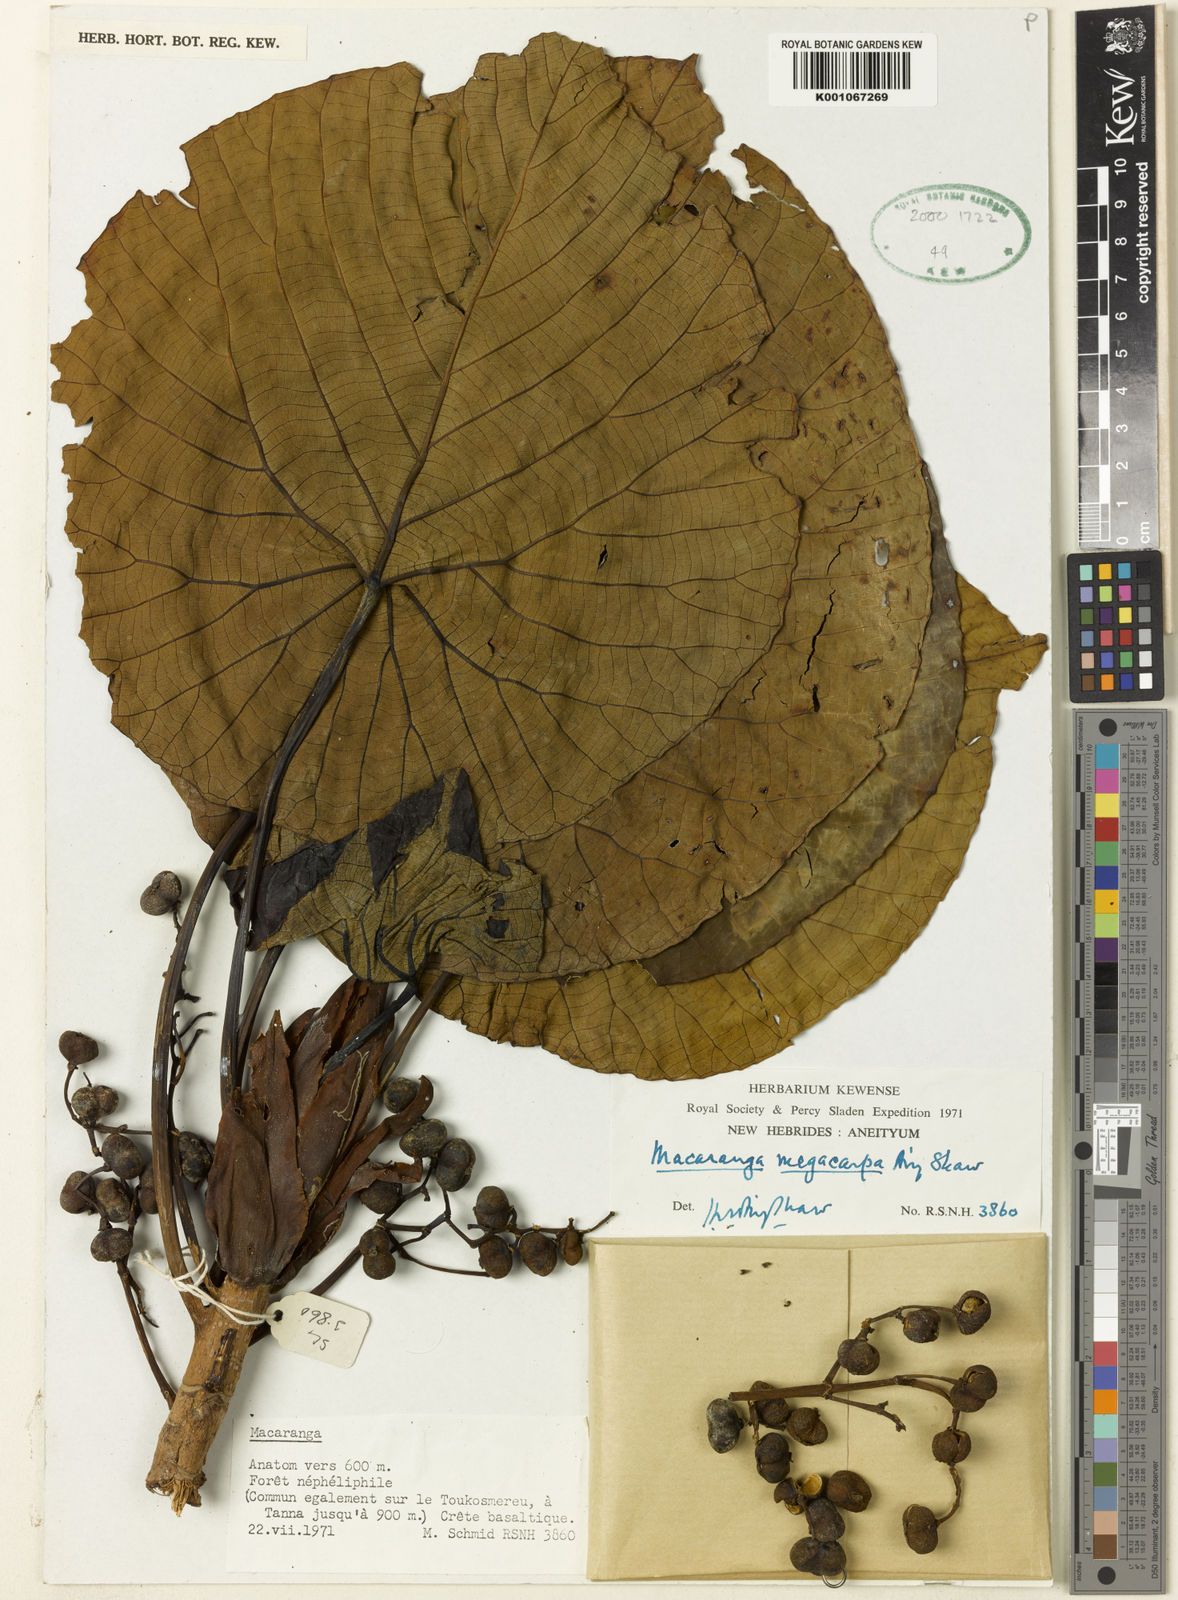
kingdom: Plantae
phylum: Tracheophyta
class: Magnoliopsida
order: Malpighiales
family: Euphorbiaceae
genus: Macaranga
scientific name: Macaranga megacarpa
